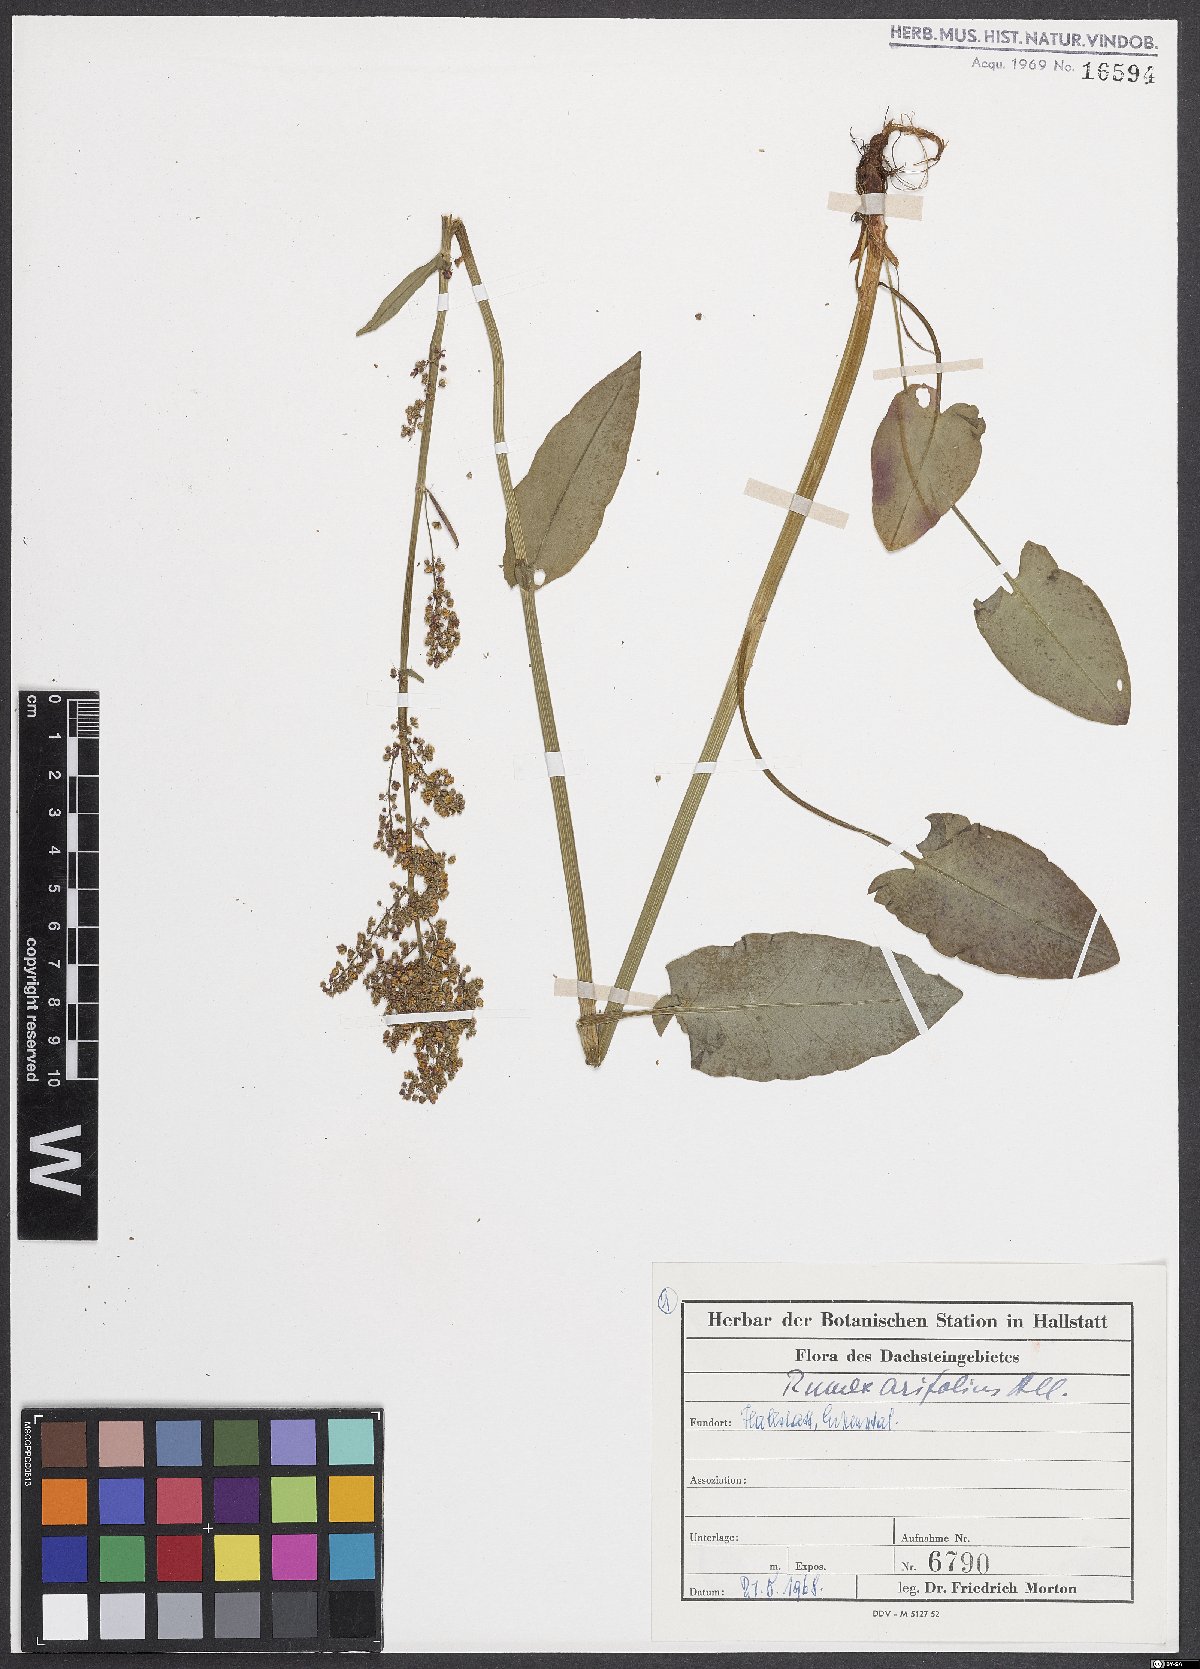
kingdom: Plantae
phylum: Tracheophyta
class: Magnoliopsida
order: Caryophyllales
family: Polygonaceae
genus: Rumex
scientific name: Rumex arifolius
